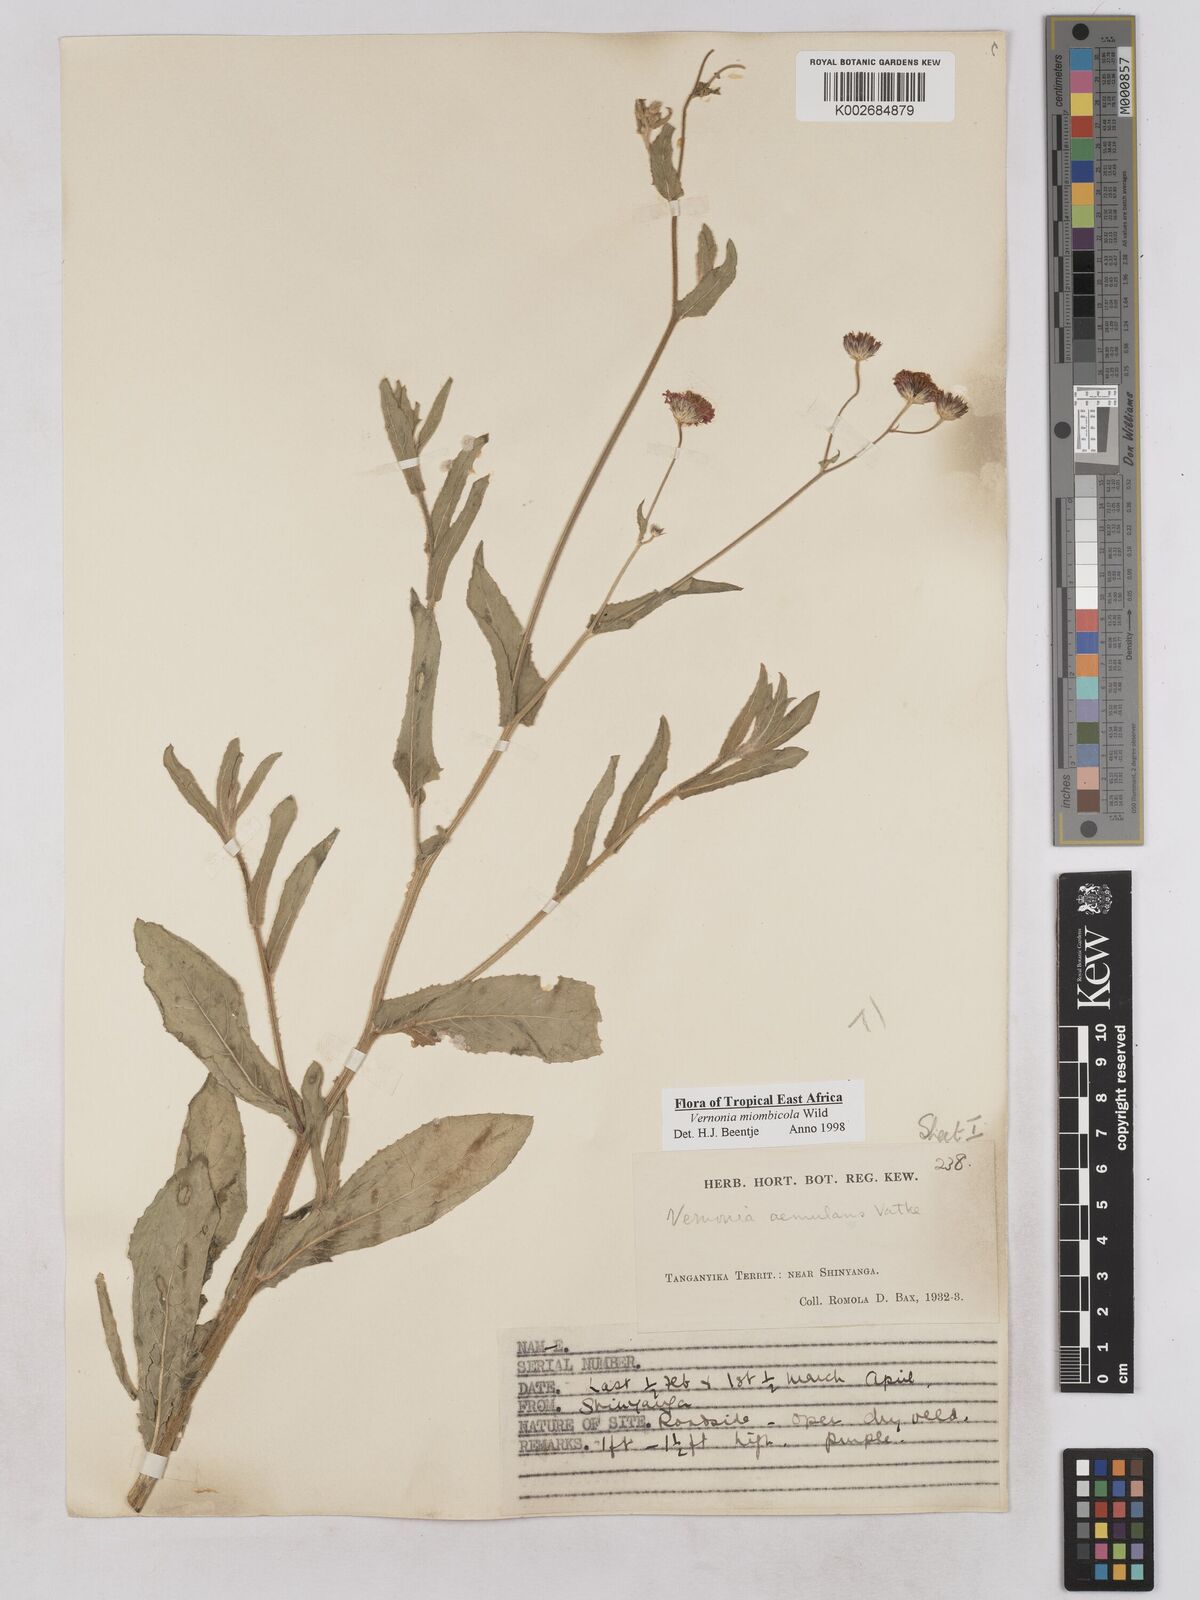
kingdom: Plantae
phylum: Tracheophyta
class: Magnoliopsida
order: Asterales
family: Asteraceae
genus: Vernonia
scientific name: Vernonia miombicola
